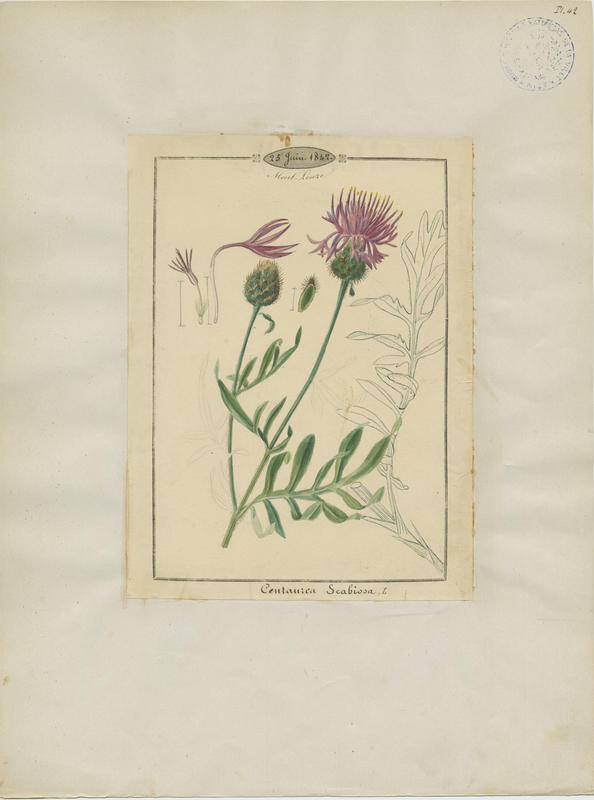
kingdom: Plantae
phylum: Tracheophyta
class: Magnoliopsida
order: Asterales
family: Asteraceae
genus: Centaurea
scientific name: Centaurea scabiosa
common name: Greater knapweed
